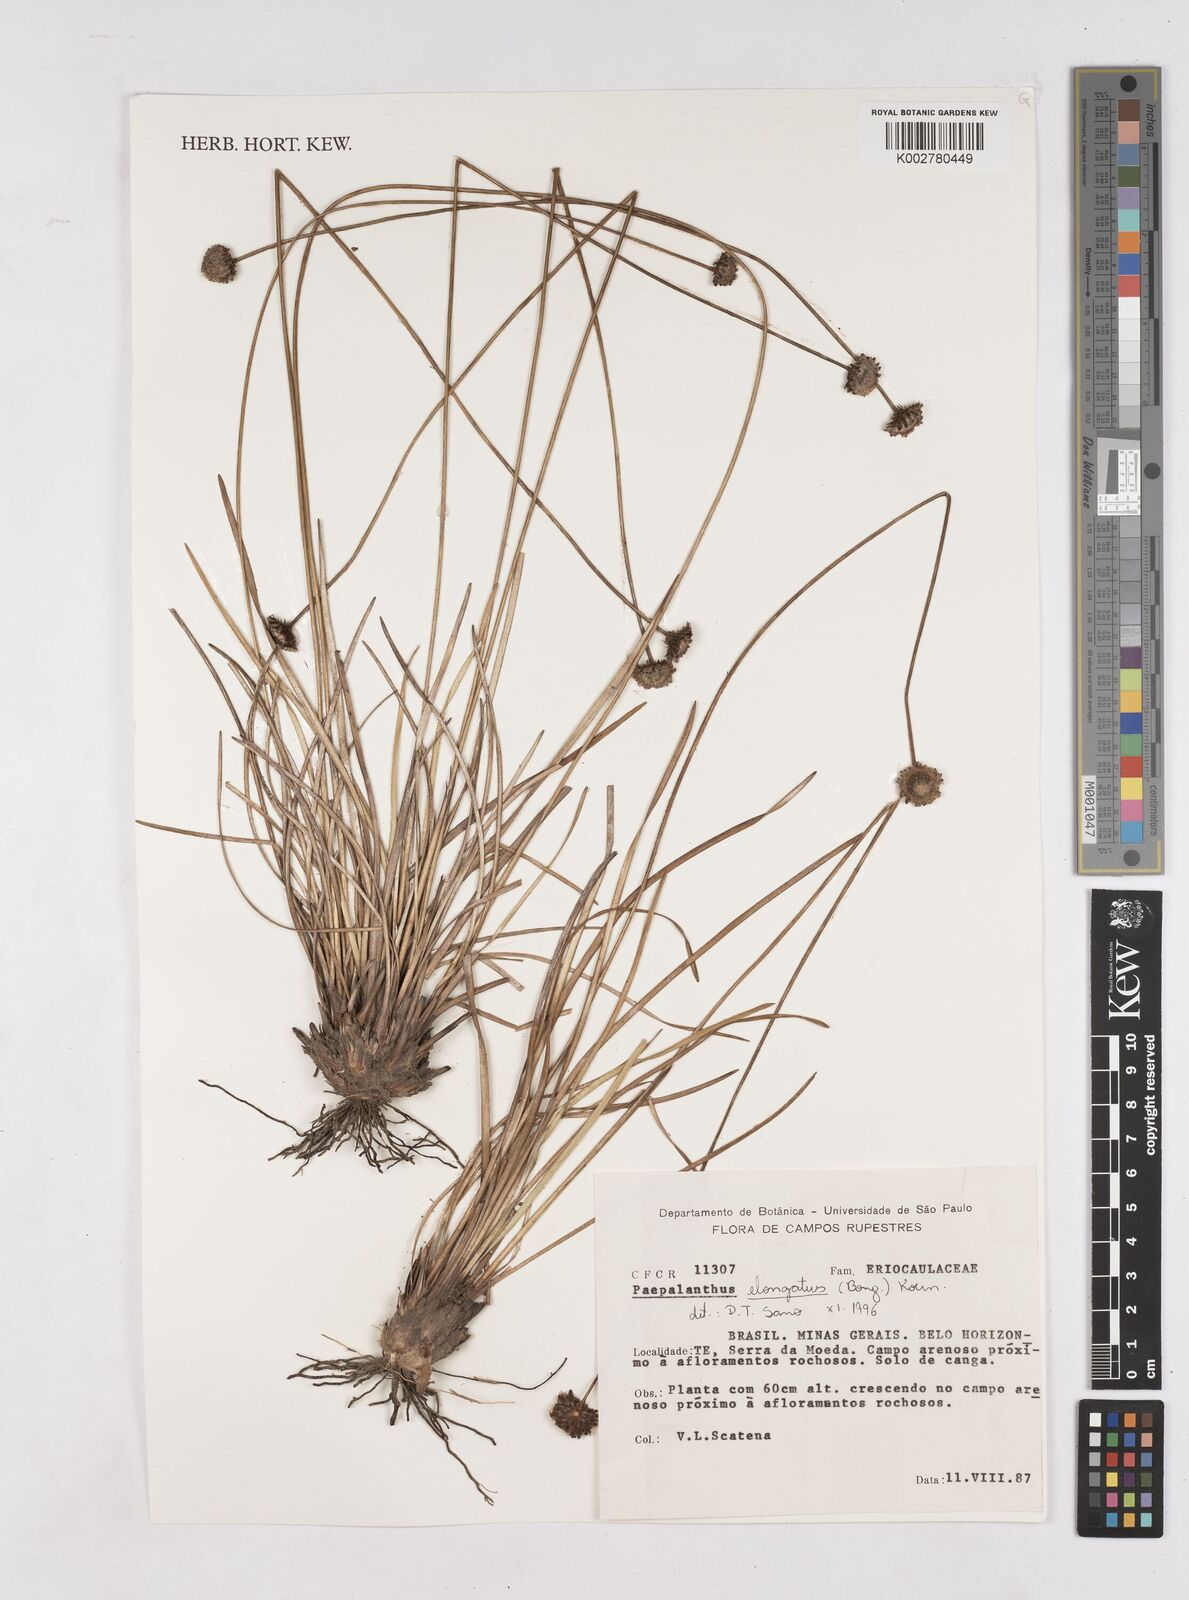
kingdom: Plantae
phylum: Tracheophyta
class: Liliopsida
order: Poales
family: Eriocaulaceae
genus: Paepalanthus
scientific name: Paepalanthus elongatus
